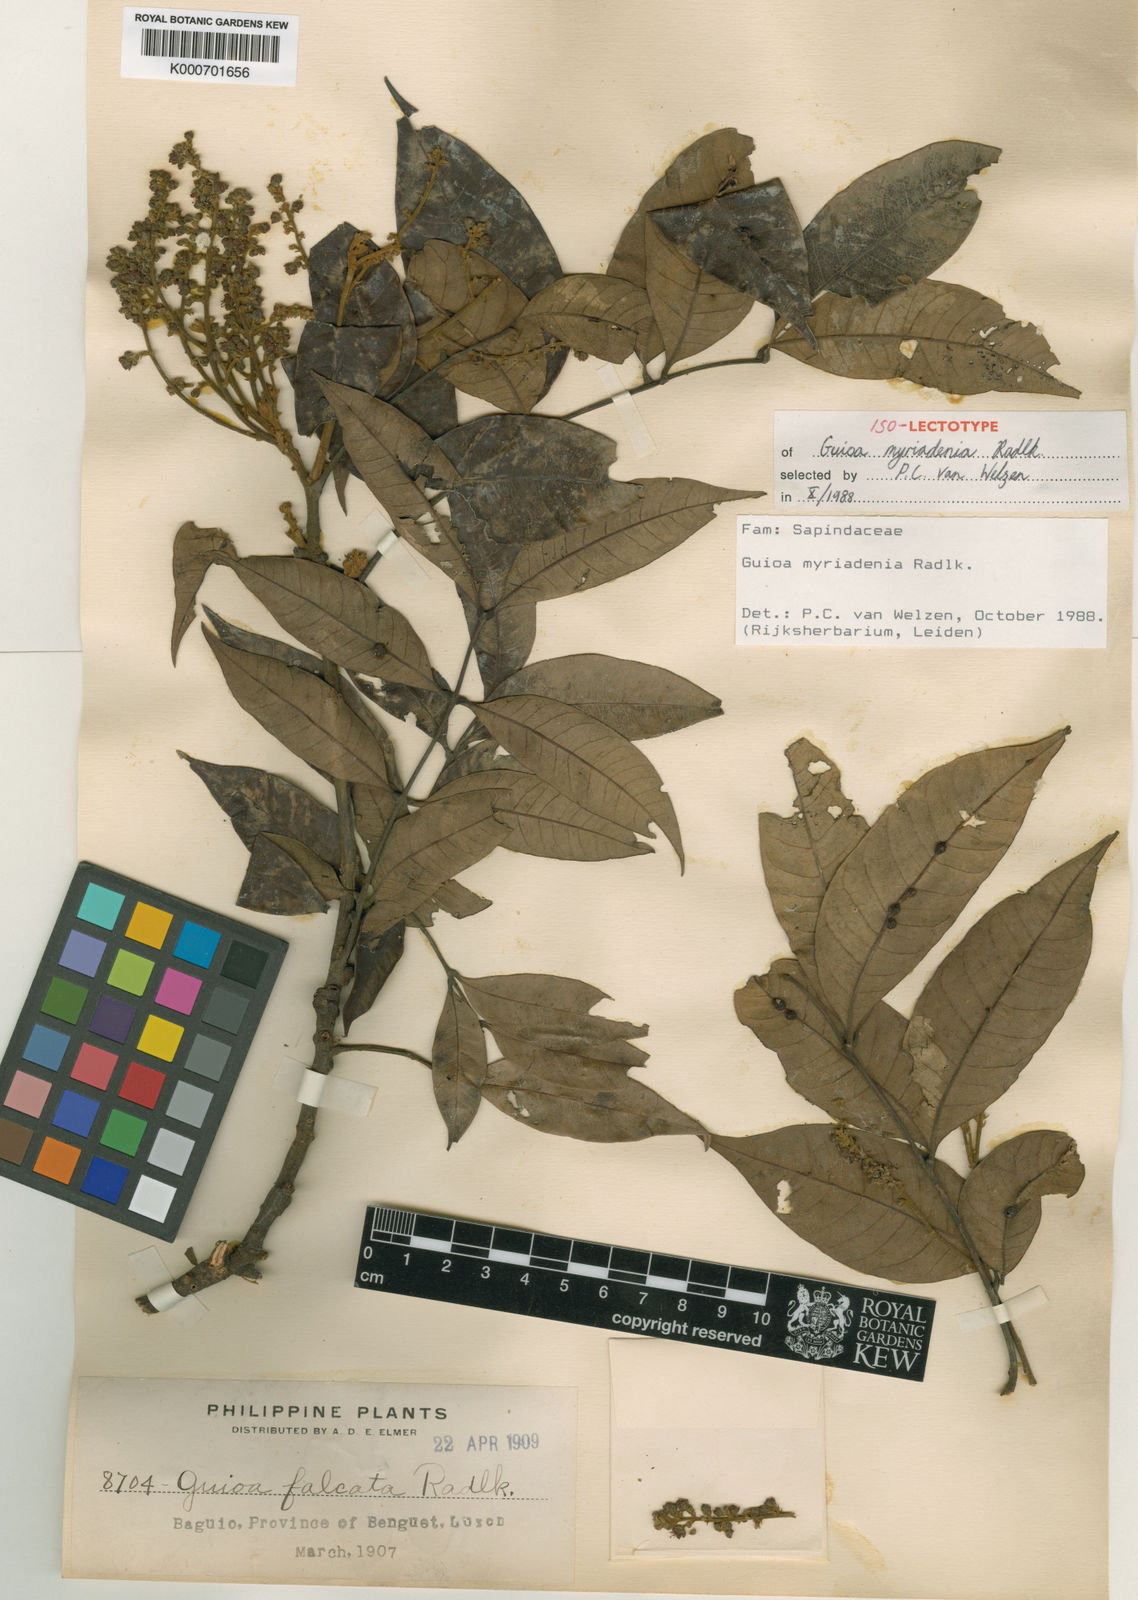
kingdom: Plantae
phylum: Tracheophyta
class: Magnoliopsida
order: Sapindales
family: Sapindaceae
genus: Guioa
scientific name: Guioa myriadenia
